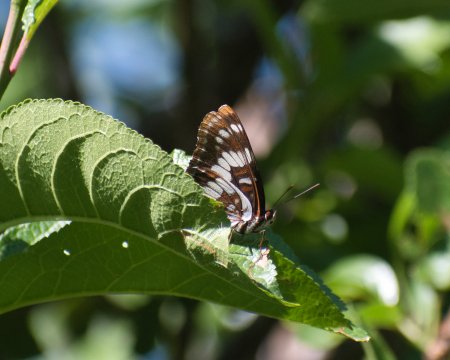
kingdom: Animalia
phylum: Arthropoda
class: Insecta
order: Lepidoptera
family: Nymphalidae
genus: Limenitis
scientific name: Limenitis lorquini
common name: Lorquin's Admiral
